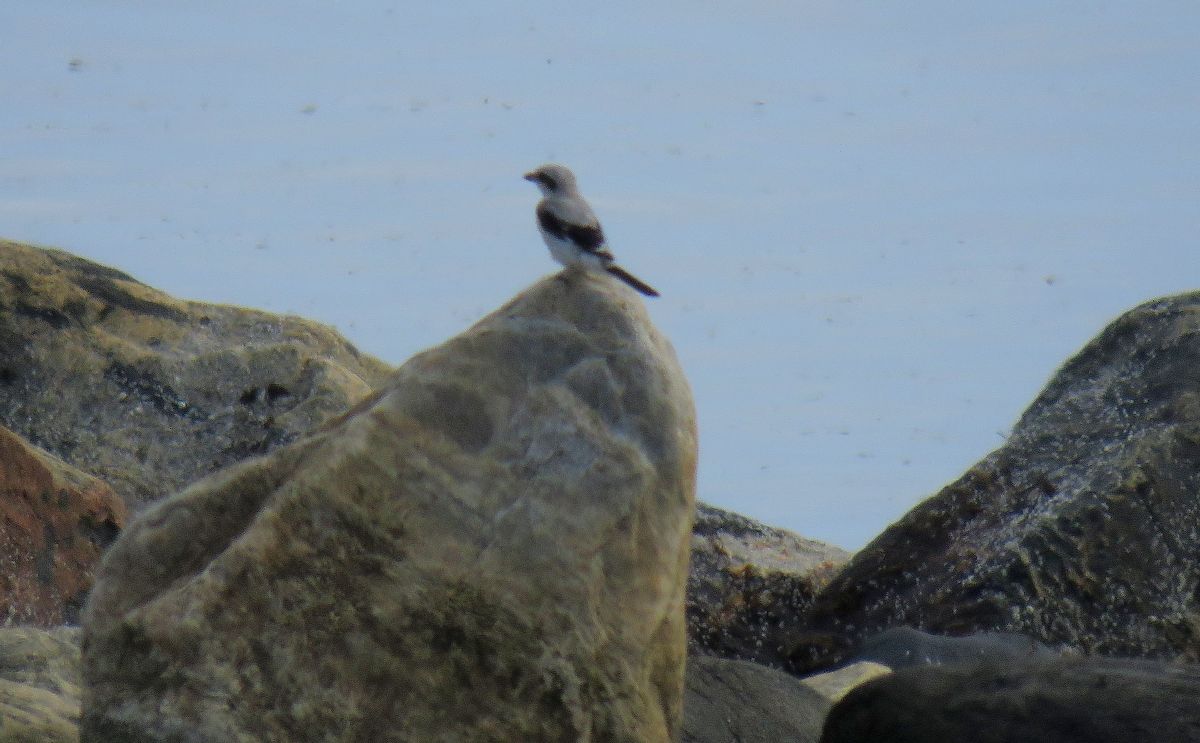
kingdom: Animalia
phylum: Chordata
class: Aves
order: Passeriformes
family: Laniidae
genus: Lanius
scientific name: Lanius excubitor
